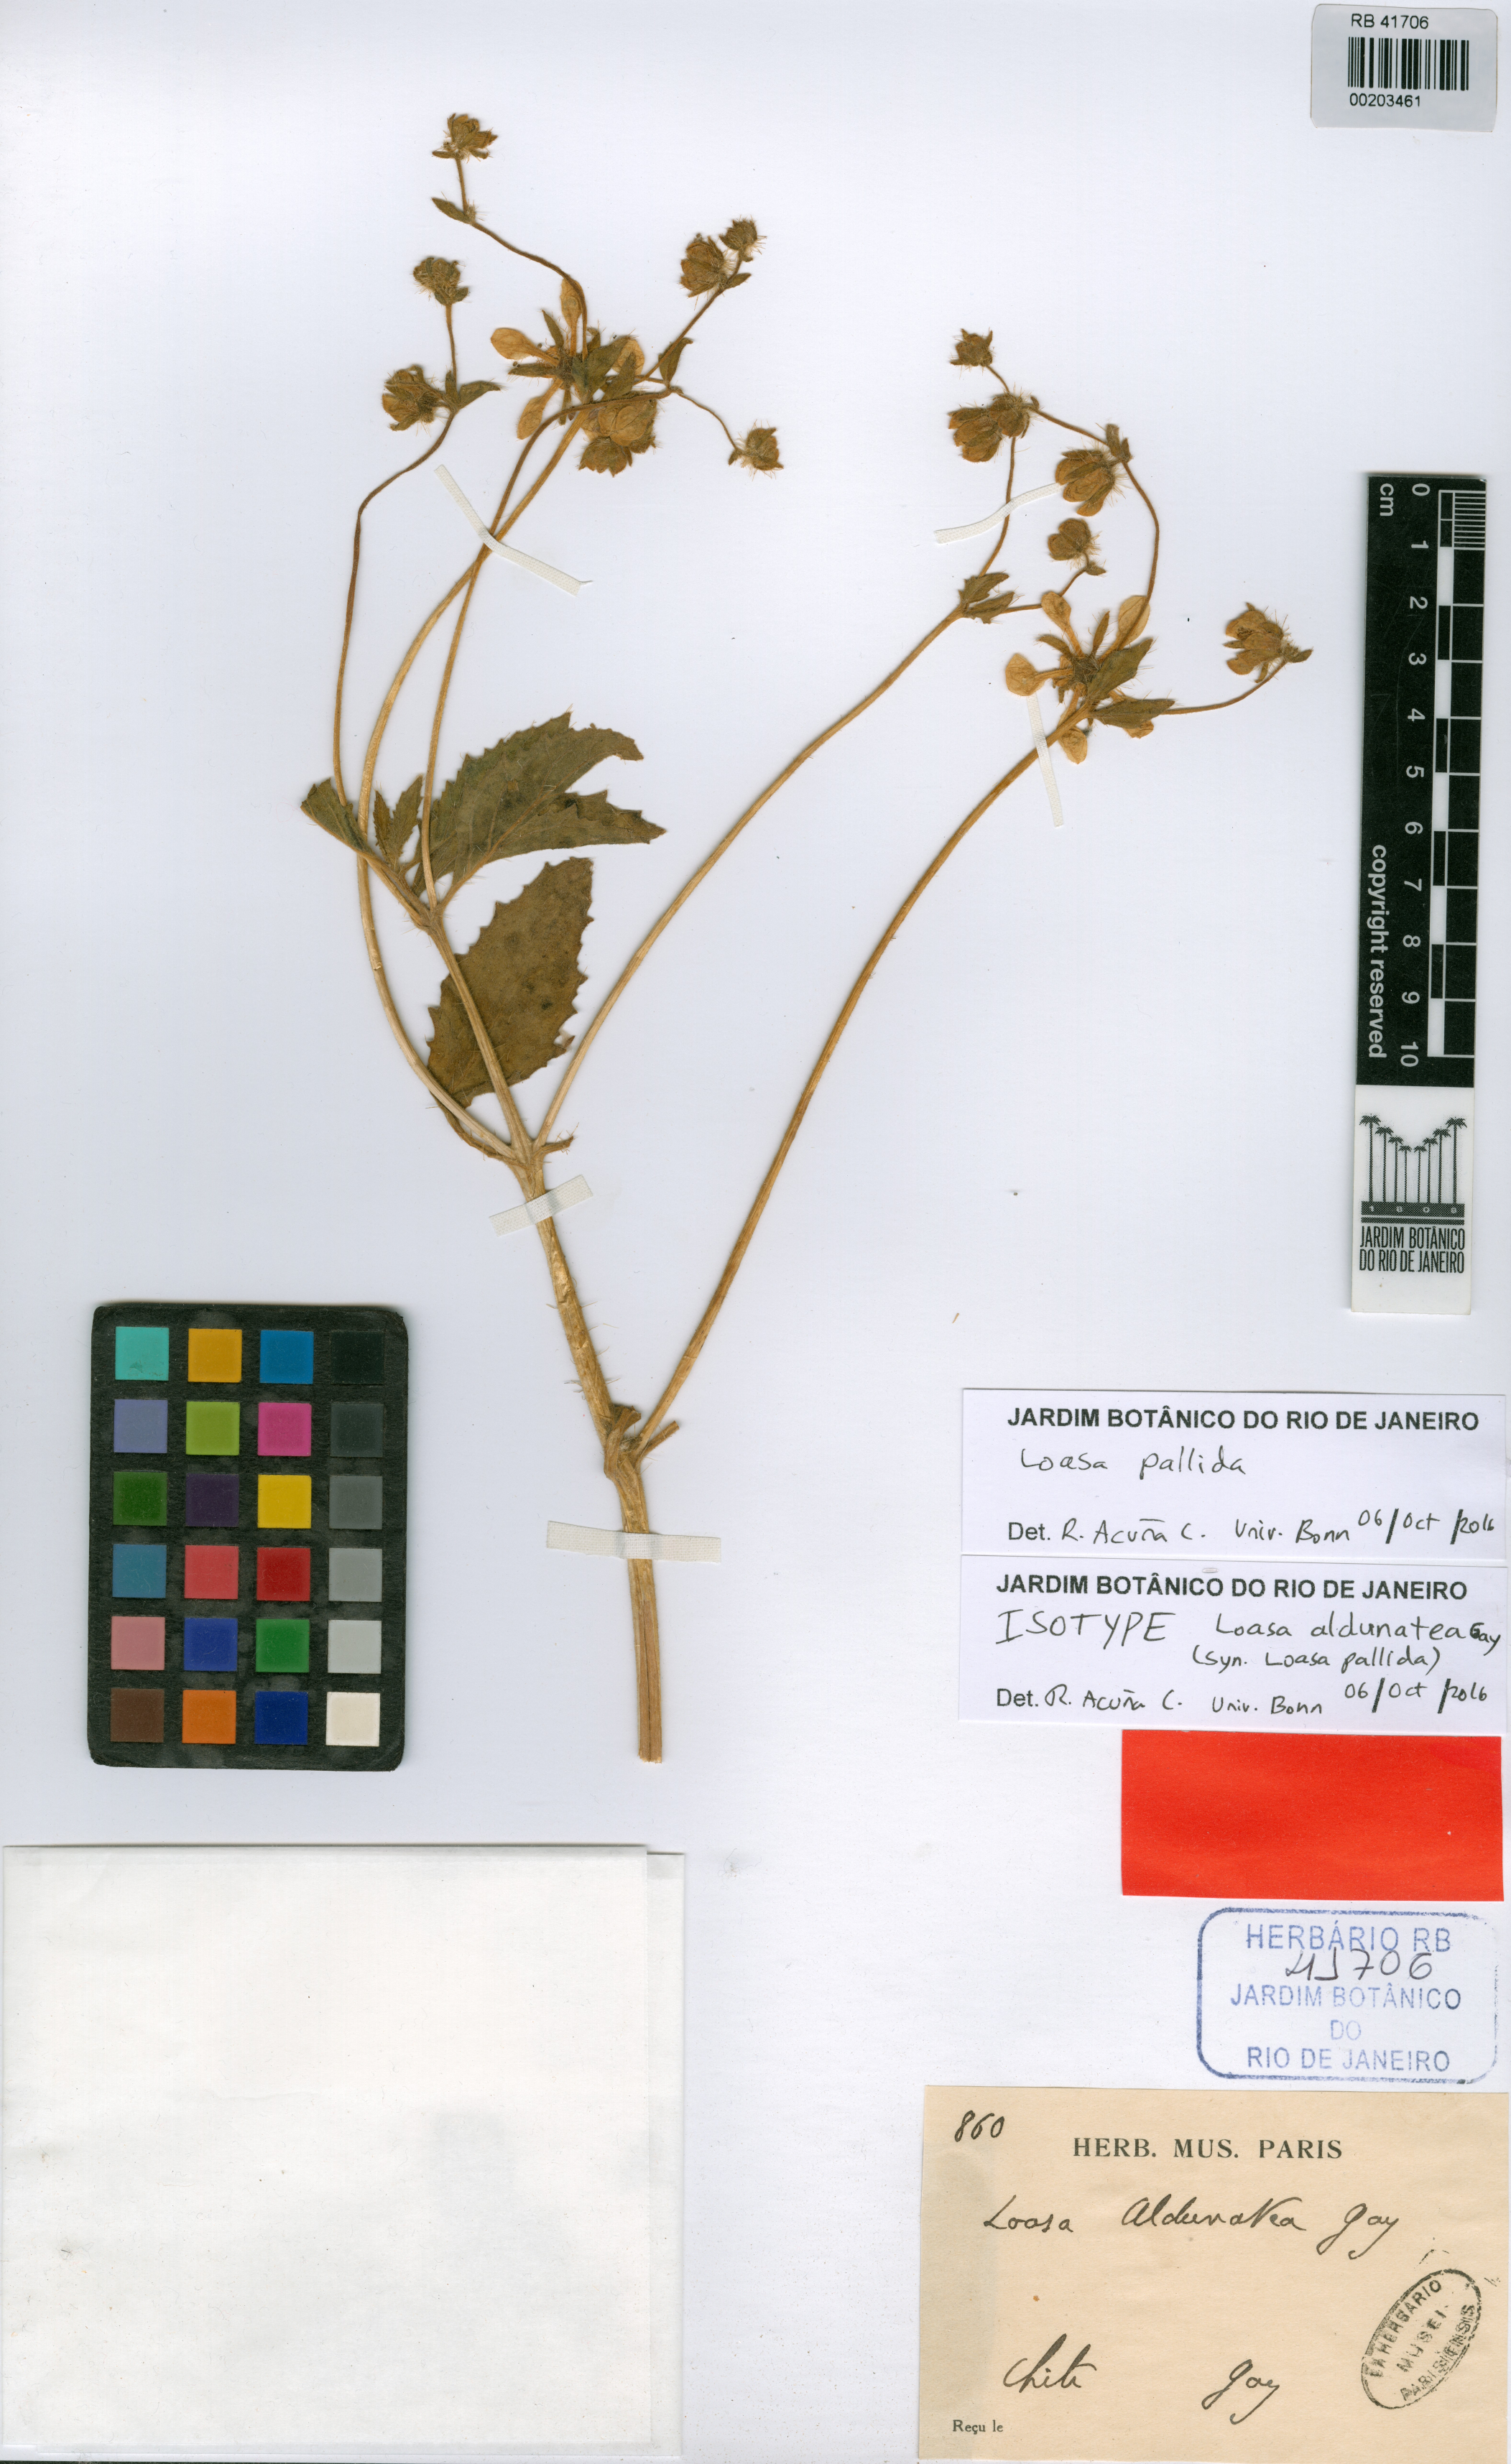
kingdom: Plantae
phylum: Tracheophyta
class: Magnoliopsida
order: Cornales
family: Loasaceae
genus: Loasa
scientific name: Loasa pallida
